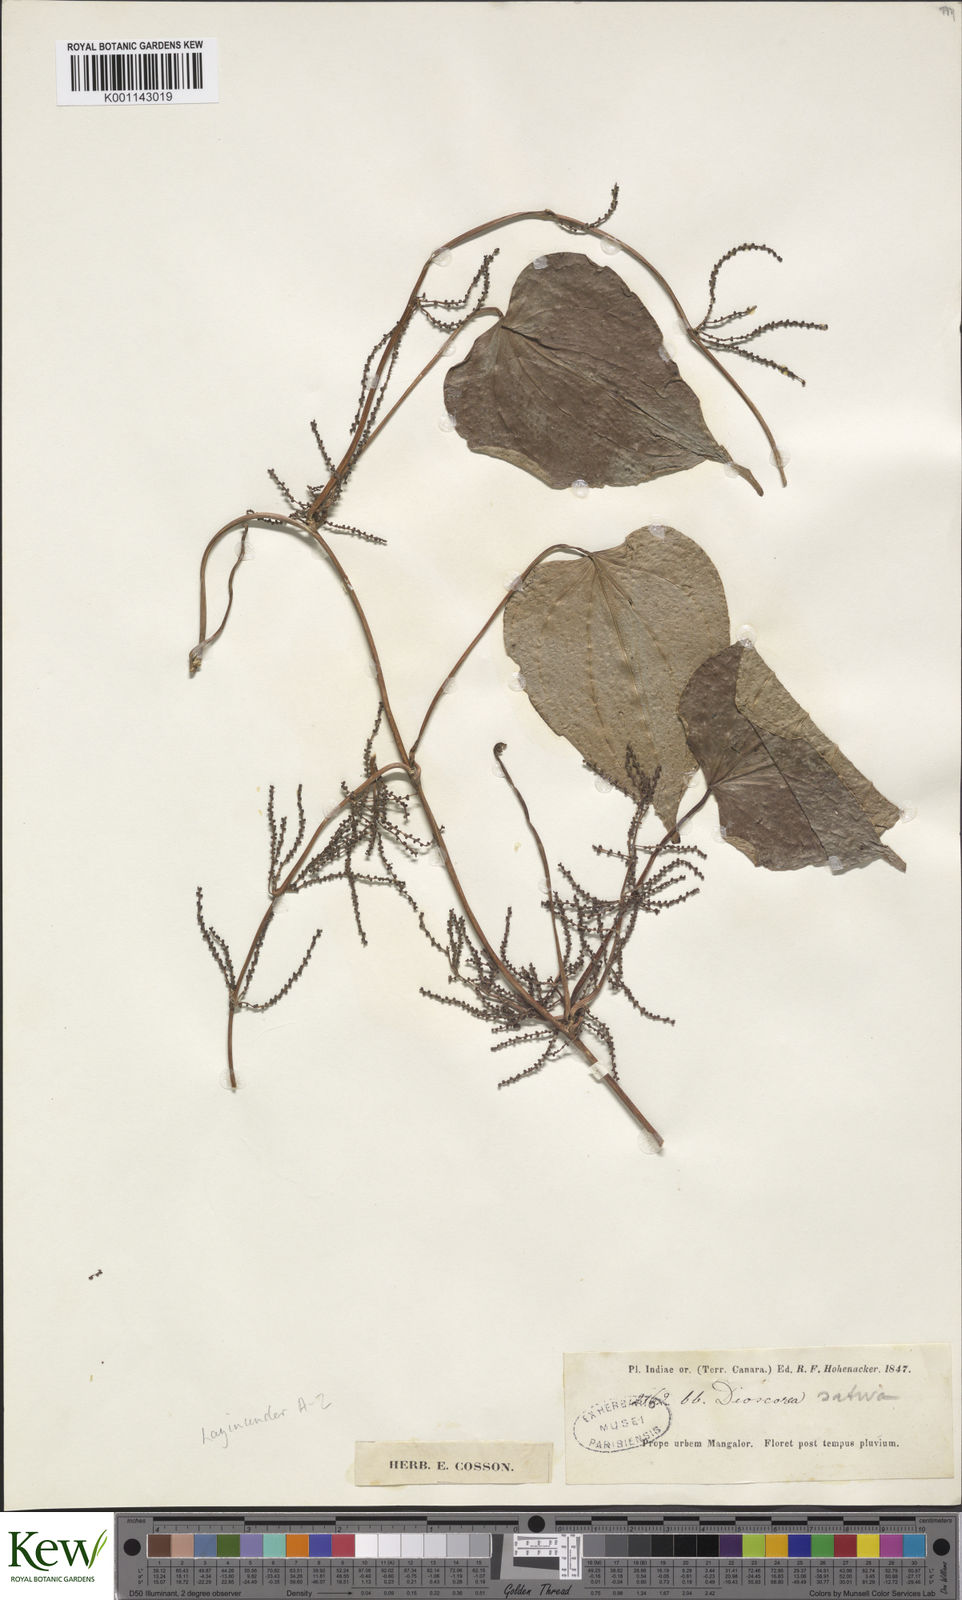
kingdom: Plantae
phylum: Tracheophyta
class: Liliopsida
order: Dioscoreales
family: Dioscoreaceae
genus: Dioscorea
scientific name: Dioscorea villosa
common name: Wild yam
